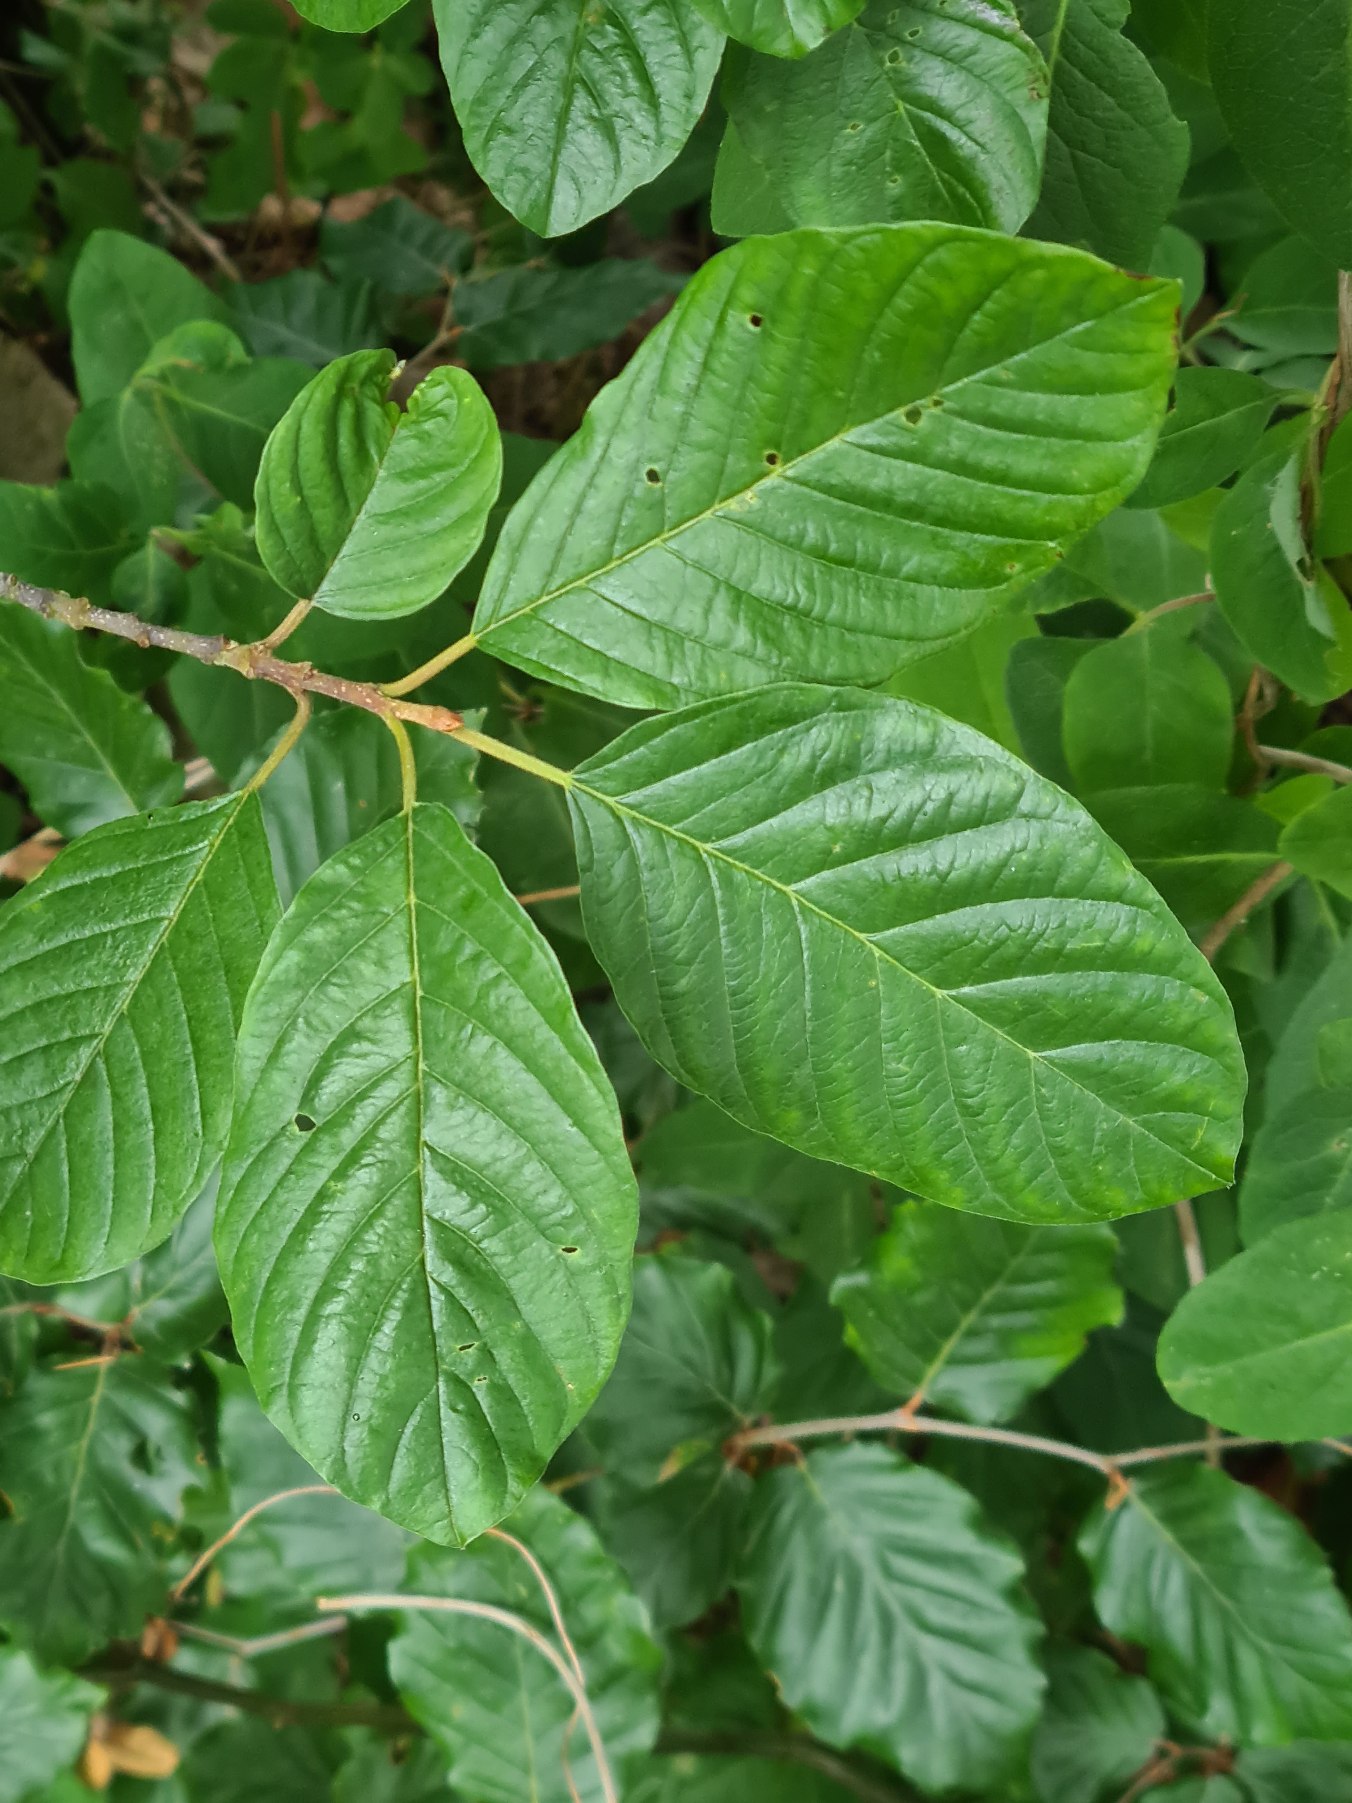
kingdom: Plantae
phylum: Tracheophyta
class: Magnoliopsida
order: Rosales
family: Rhamnaceae
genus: Frangula
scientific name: Frangula alnus
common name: Tørst
